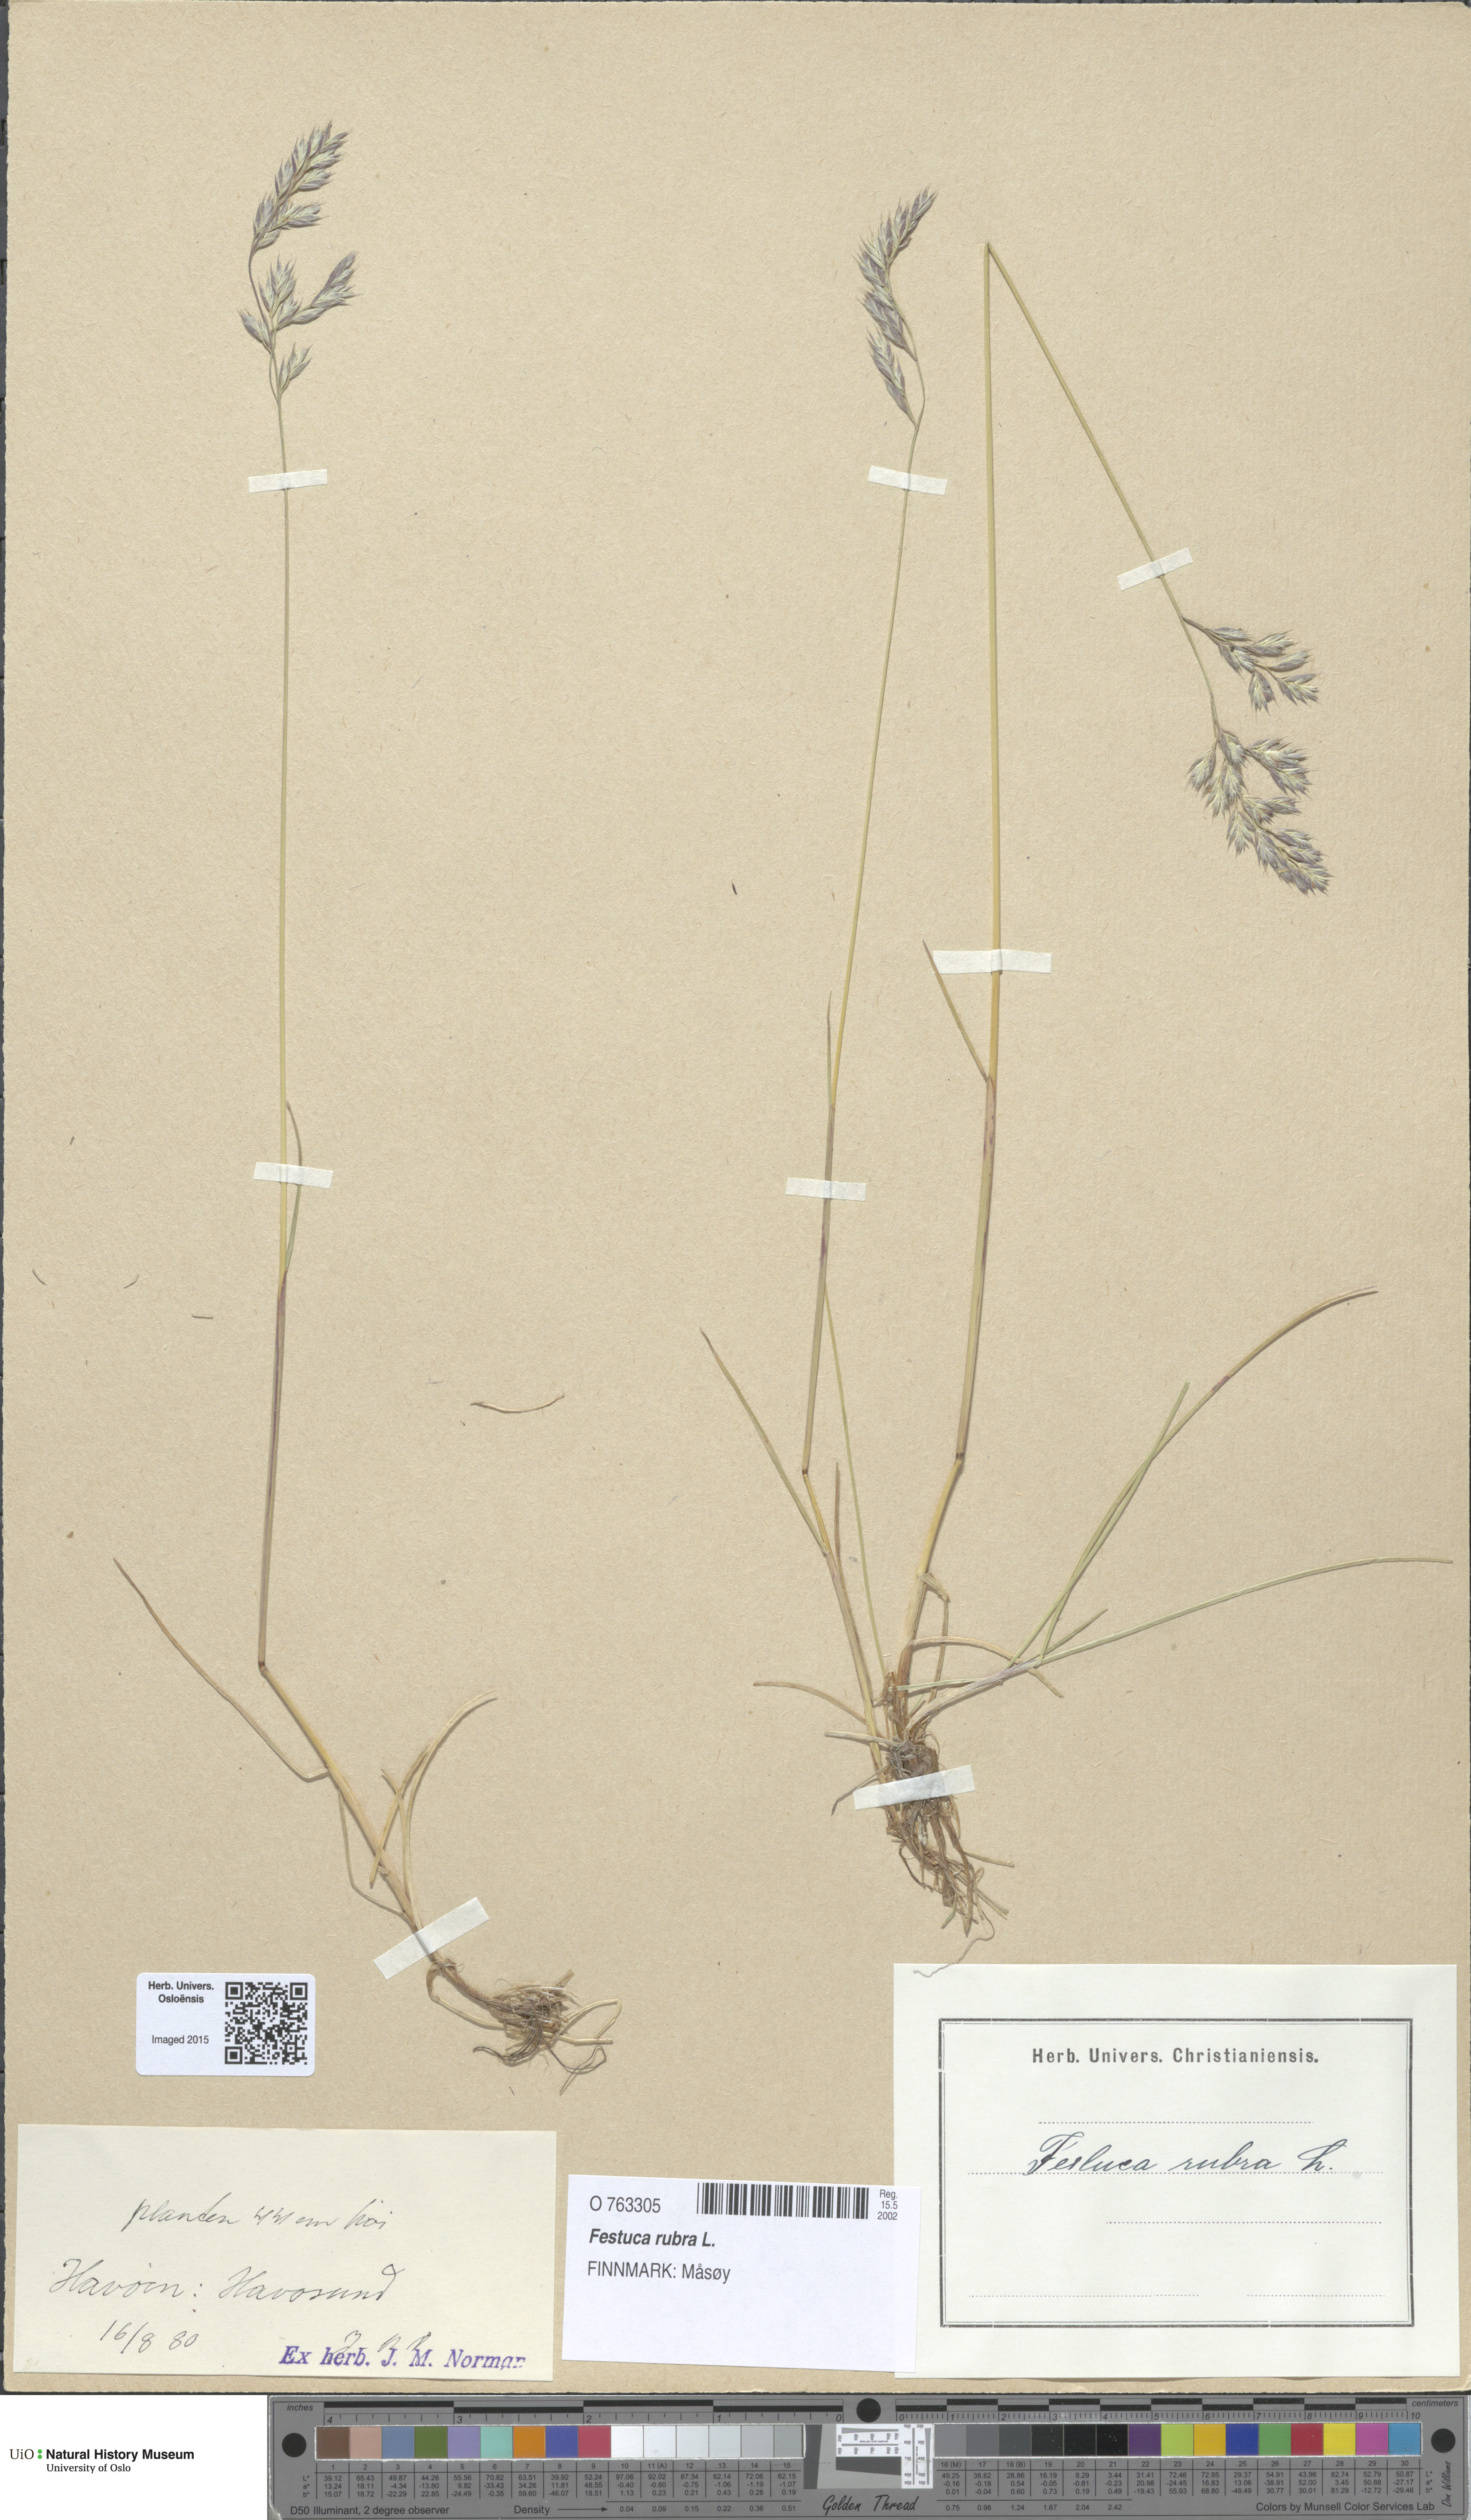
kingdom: Plantae
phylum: Tracheophyta
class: Liliopsida
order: Poales
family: Poaceae
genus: Festuca
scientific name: Festuca rubra
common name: Red fescue
